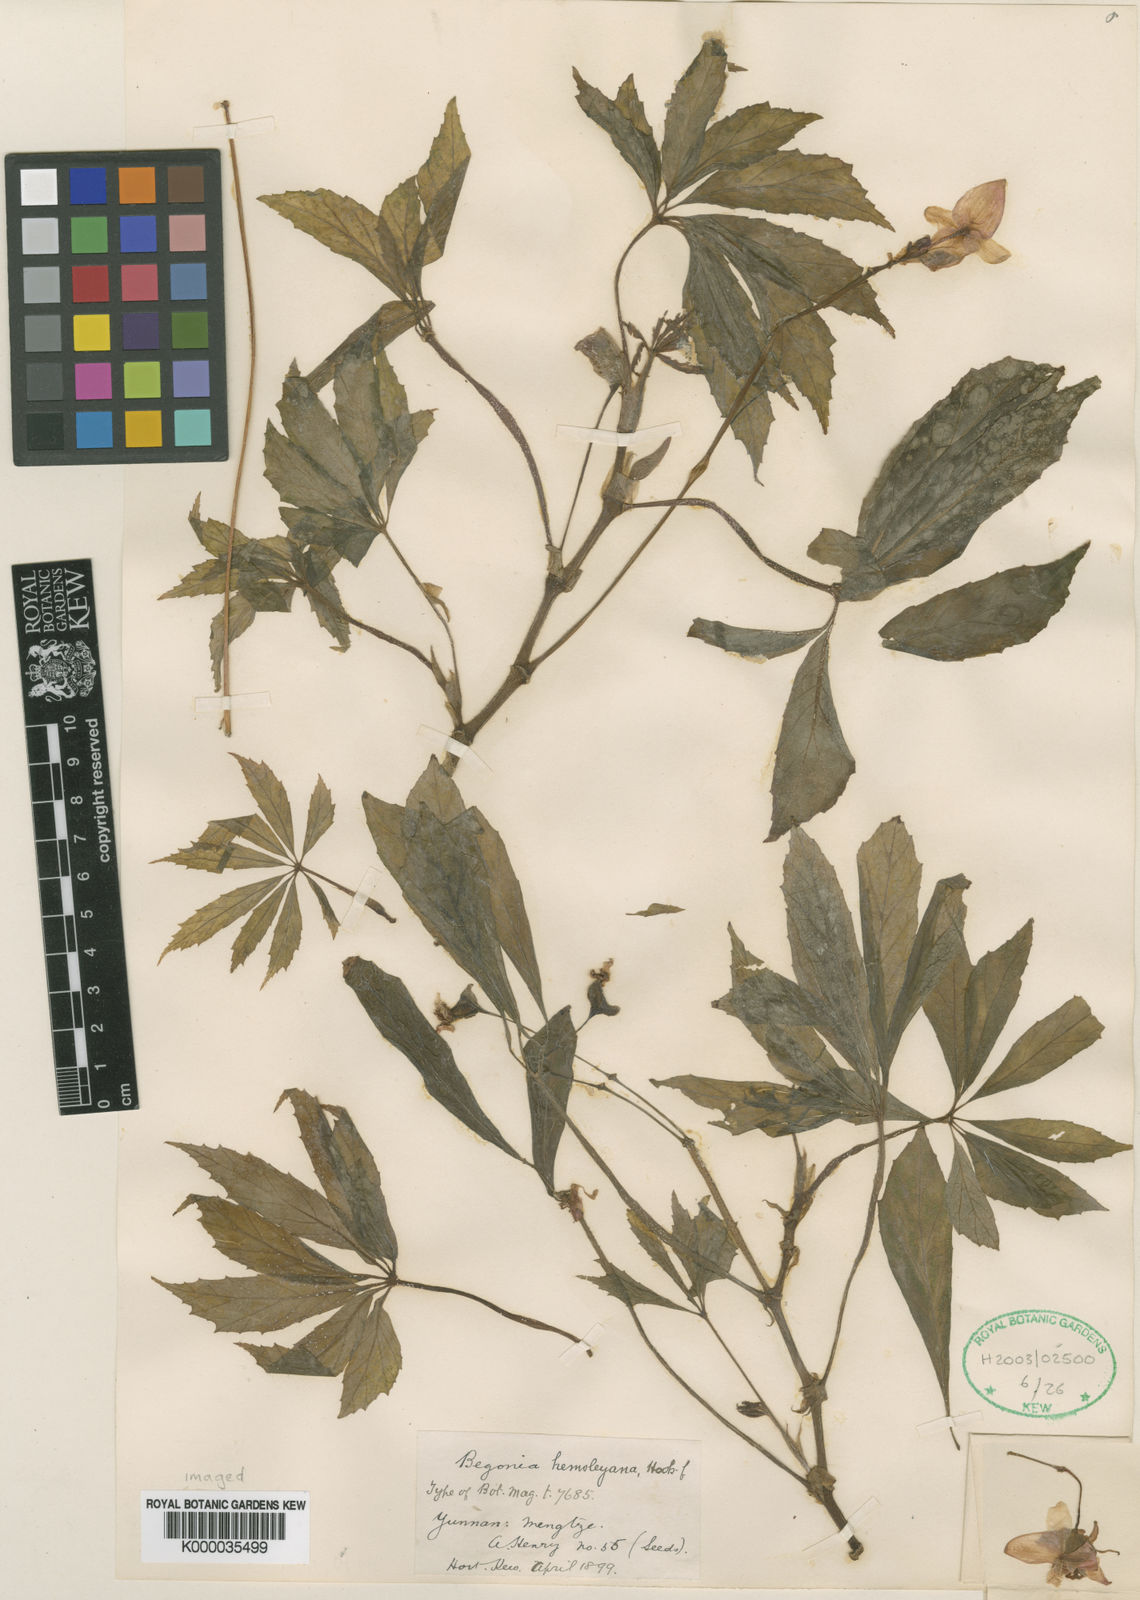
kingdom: Plantae
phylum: Tracheophyta
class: Magnoliopsida
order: Cucurbitales
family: Begoniaceae
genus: Begonia
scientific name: Begonia hemsleyana
